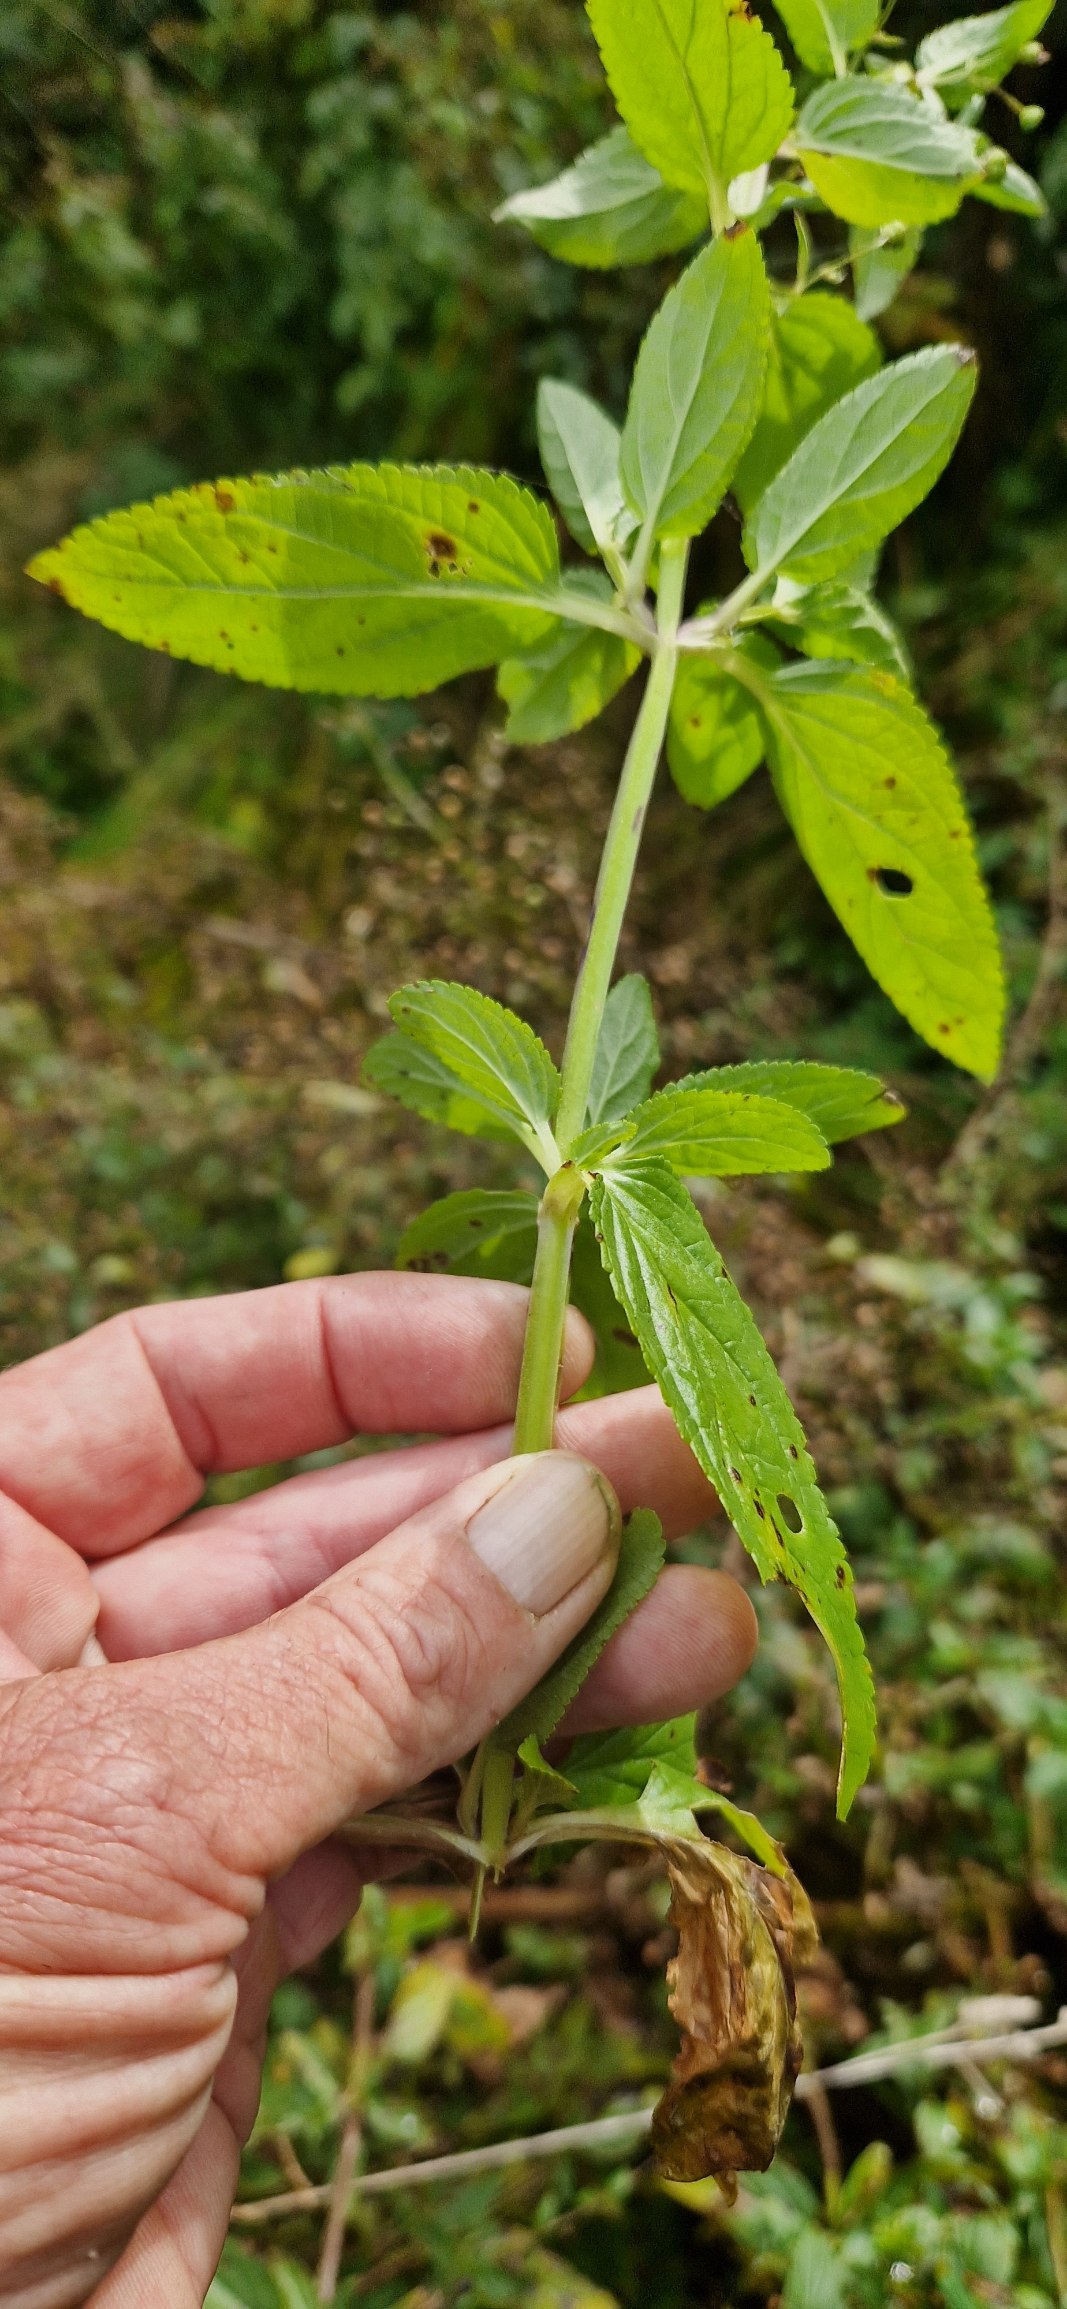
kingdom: Plantae
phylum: Tracheophyta
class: Magnoliopsida
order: Lamiales
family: Scrophulariaceae
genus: Scrophularia
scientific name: Scrophularia umbrosa
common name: Vand-brunrod
